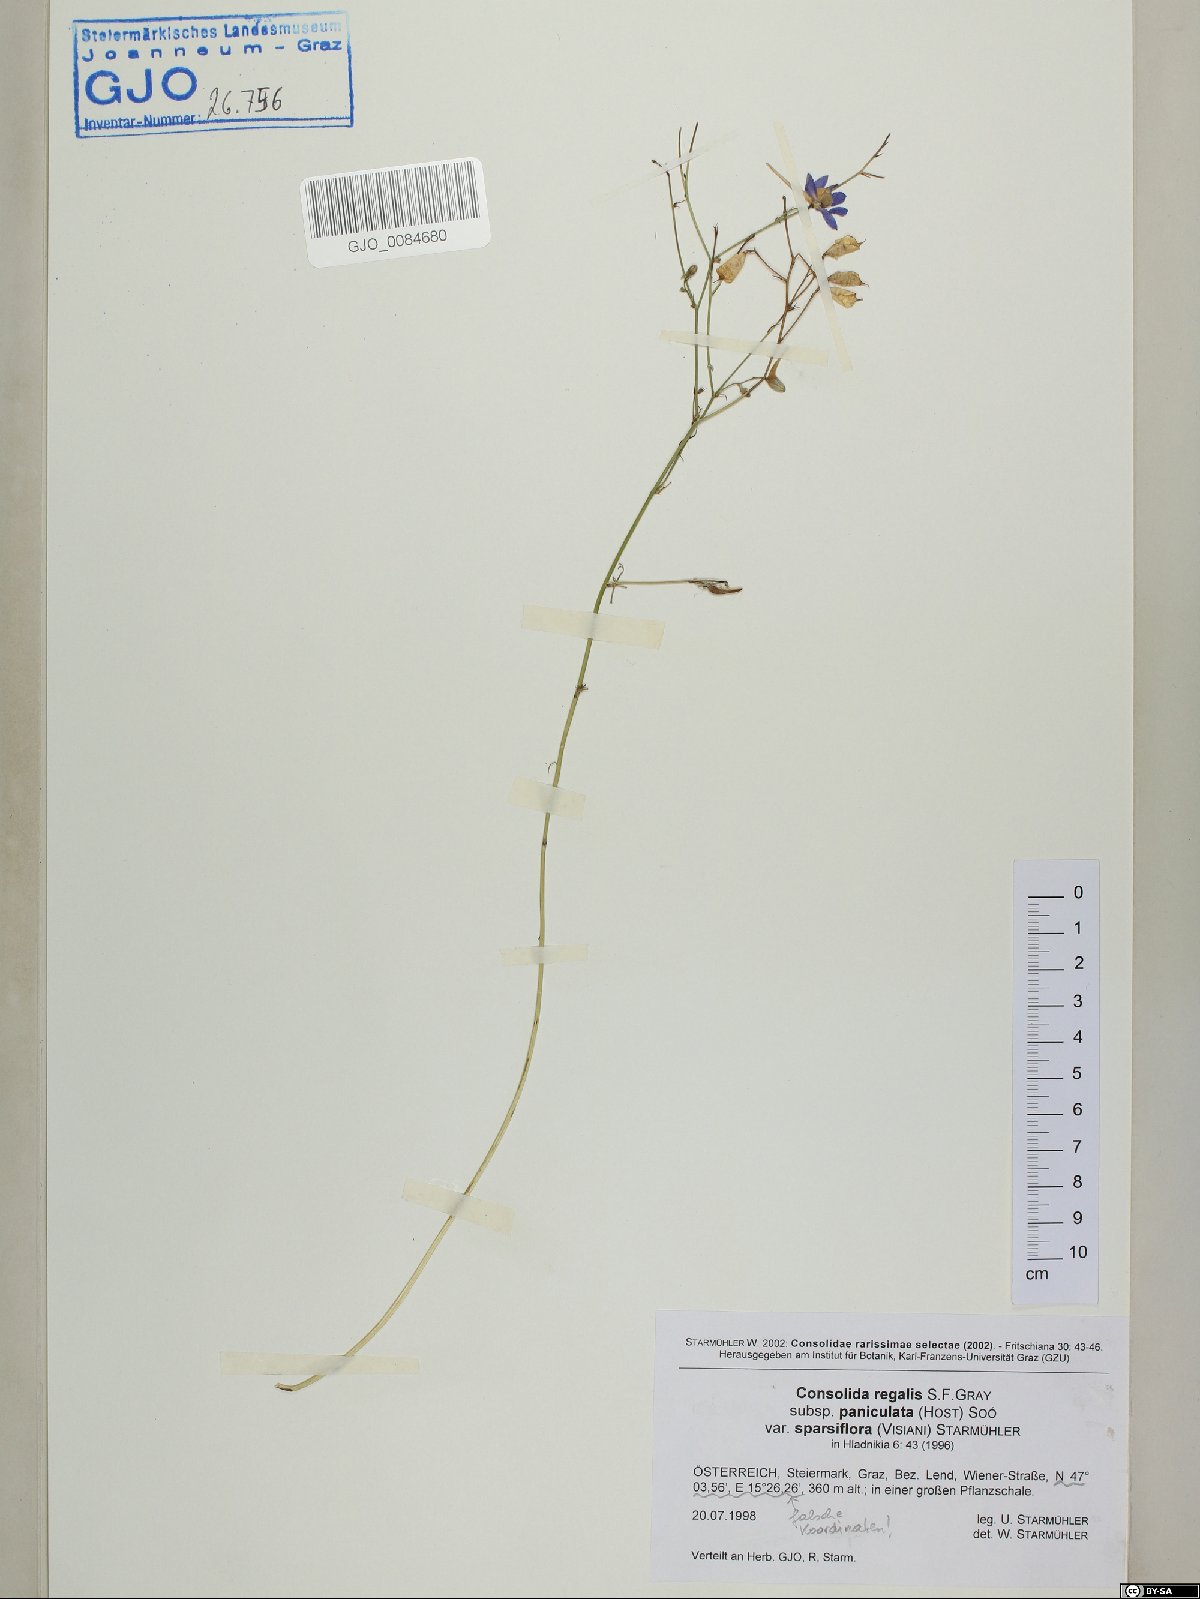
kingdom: Plantae
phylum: Tracheophyta
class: Magnoliopsida
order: Ranunculales
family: Ranunculaceae
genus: Delphinium
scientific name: Delphinium consolida
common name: Branching larkspur
